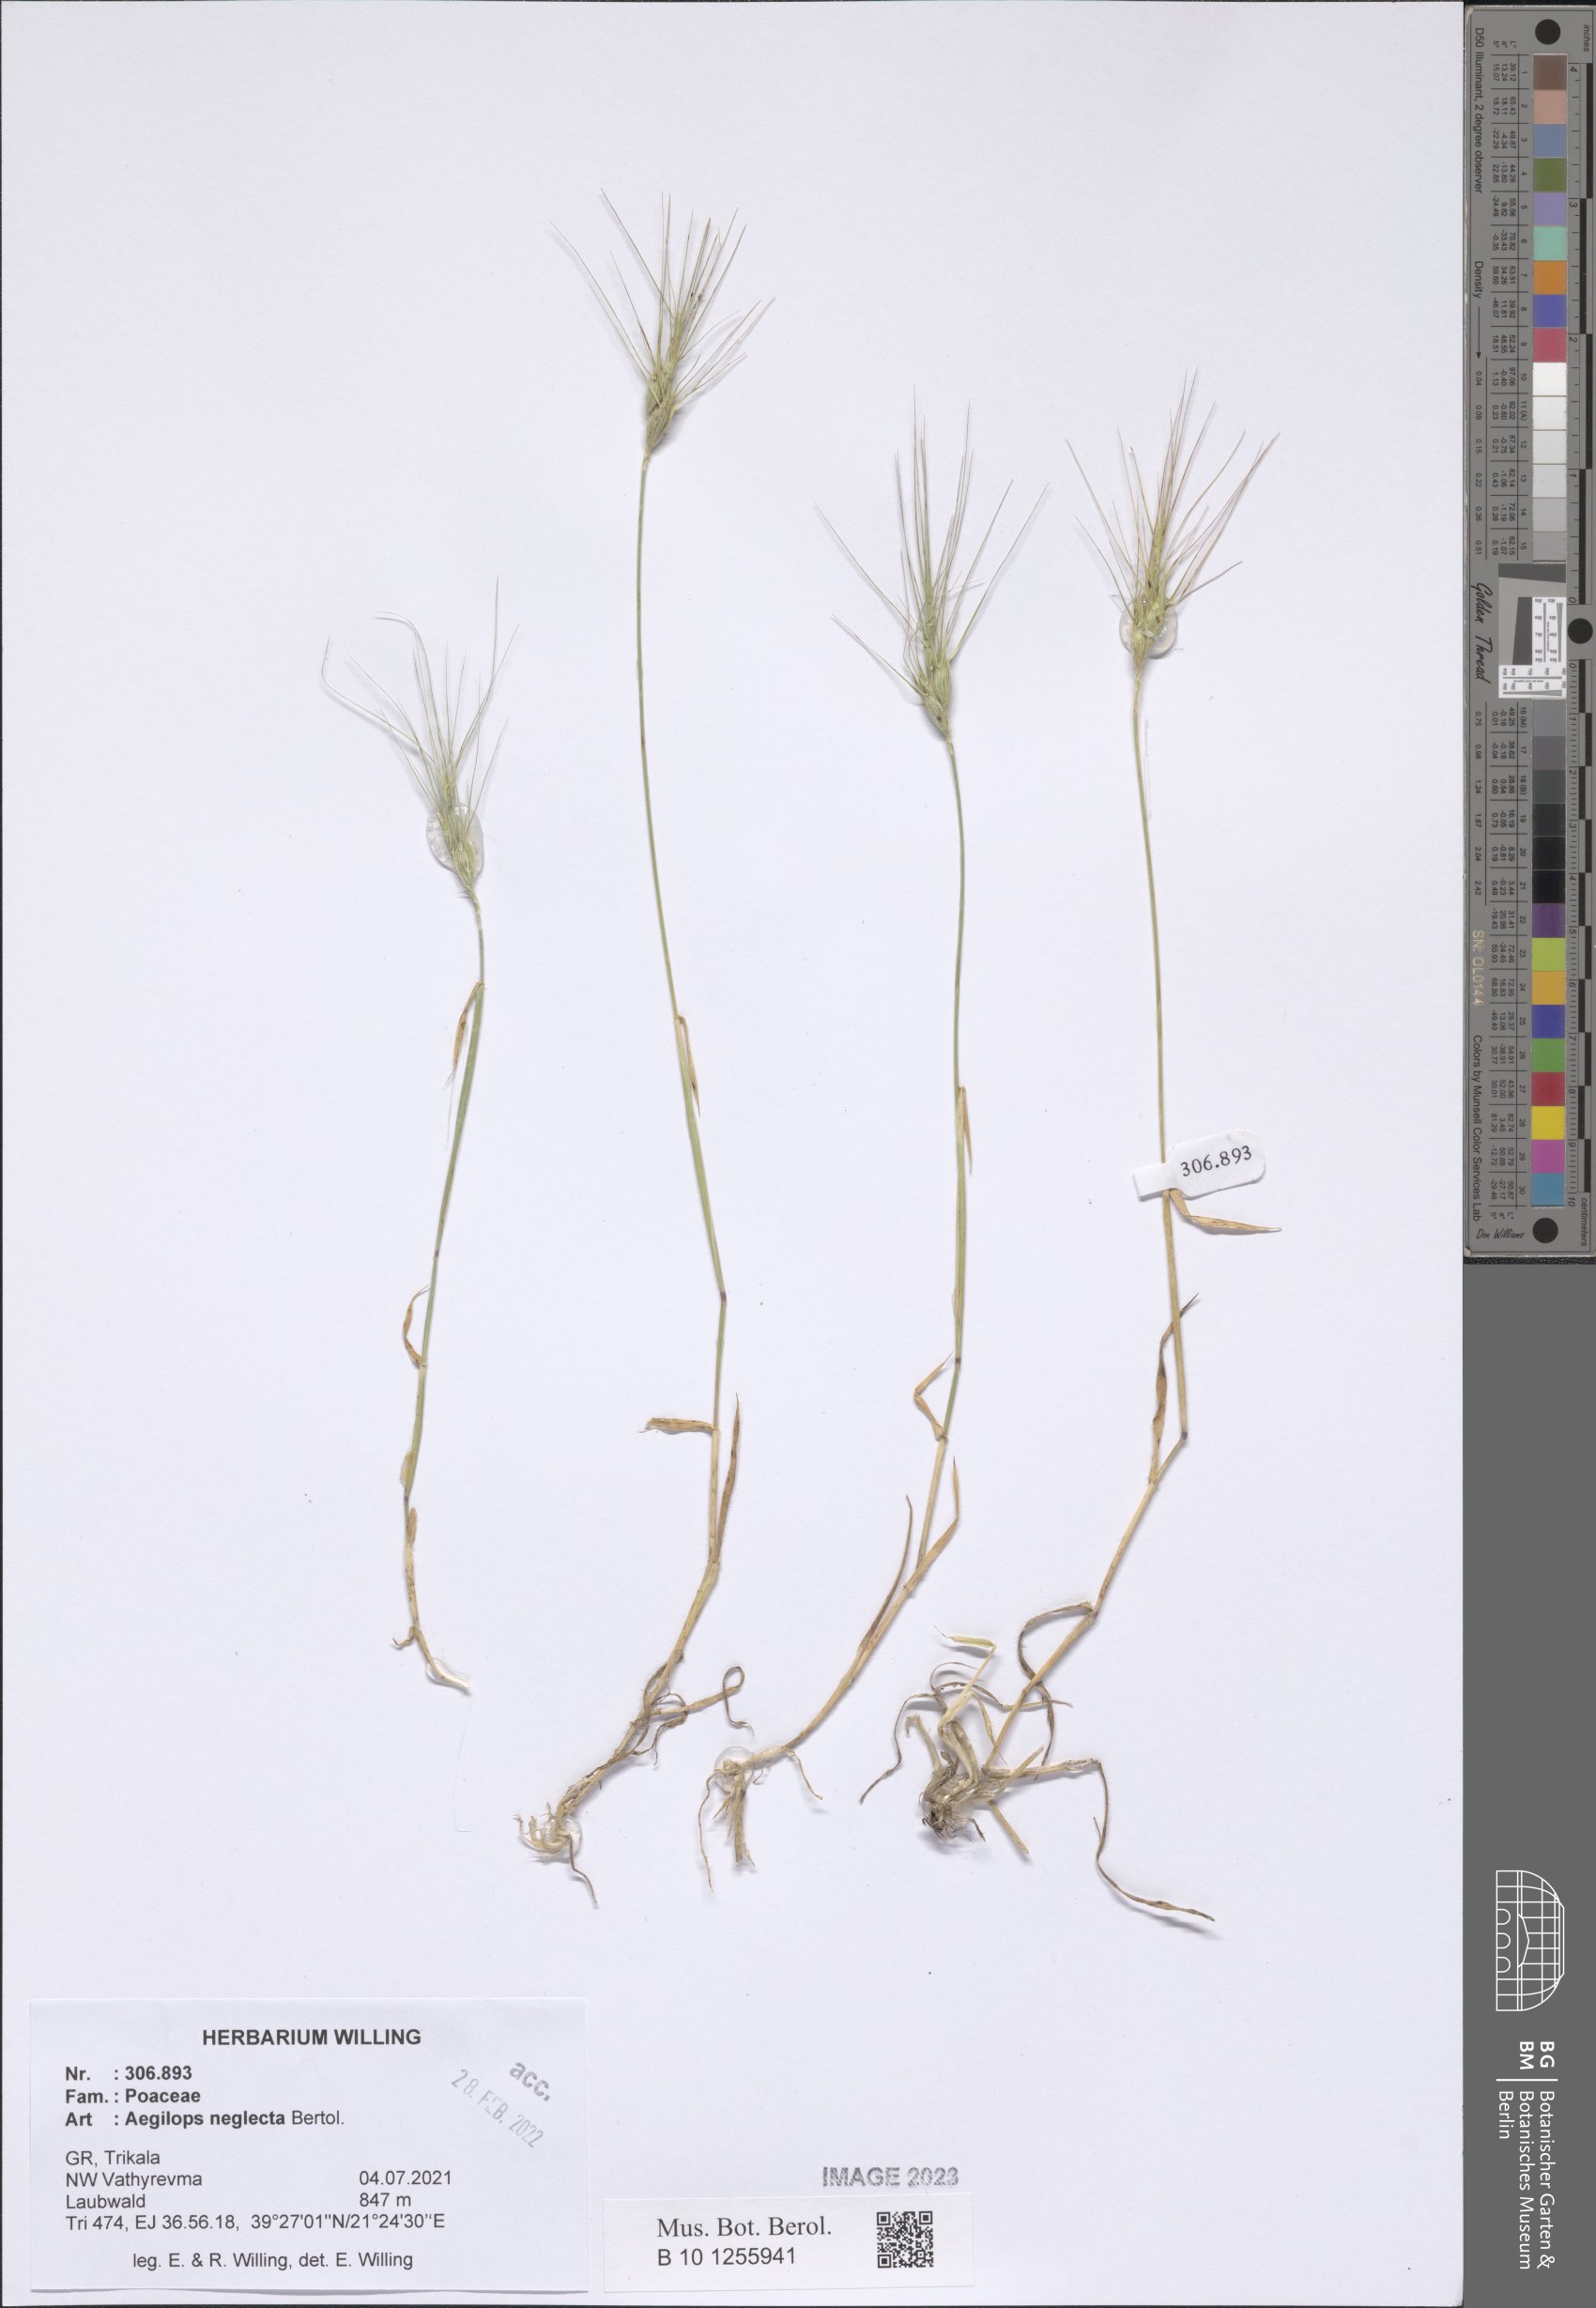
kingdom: Plantae
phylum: Tracheophyta
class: Liliopsida
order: Poales
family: Poaceae
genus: Aegilops
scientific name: Aegilops neglecta
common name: Three-awn goat grass
